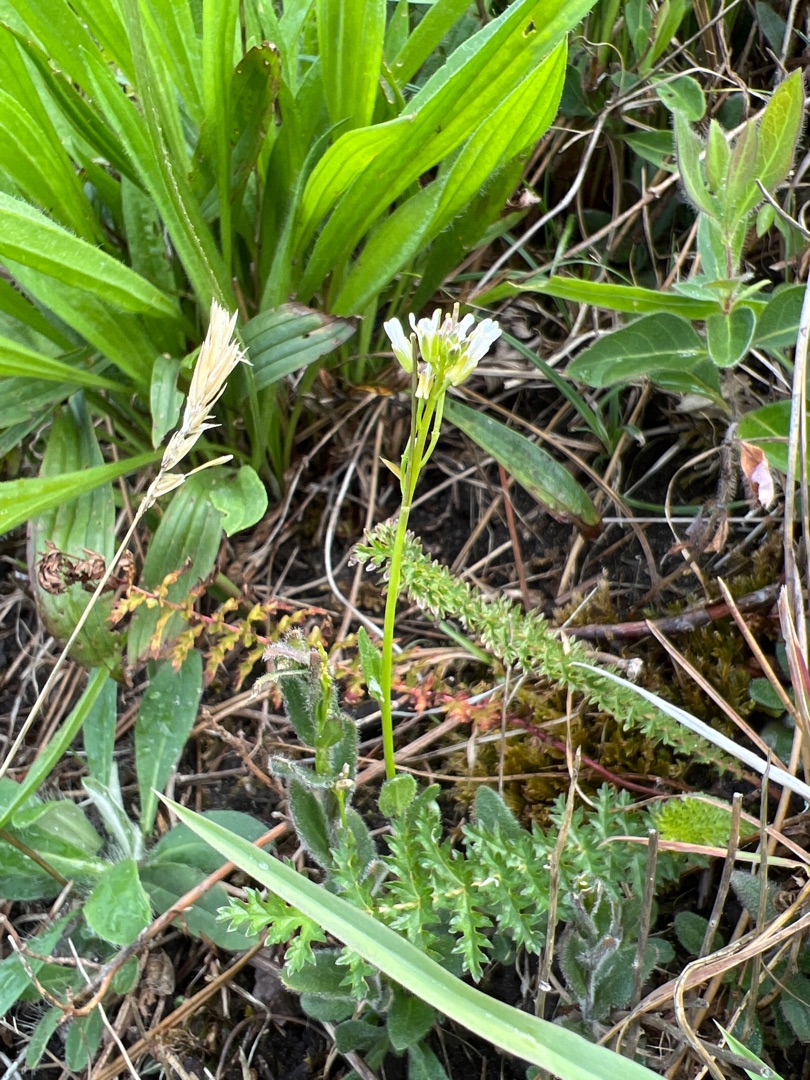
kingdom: Plantae
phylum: Tracheophyta
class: Magnoliopsida
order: Brassicales
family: Brassicaceae
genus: Arabis
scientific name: Arabis hirsuta
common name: Stivhåret kalkkarse
